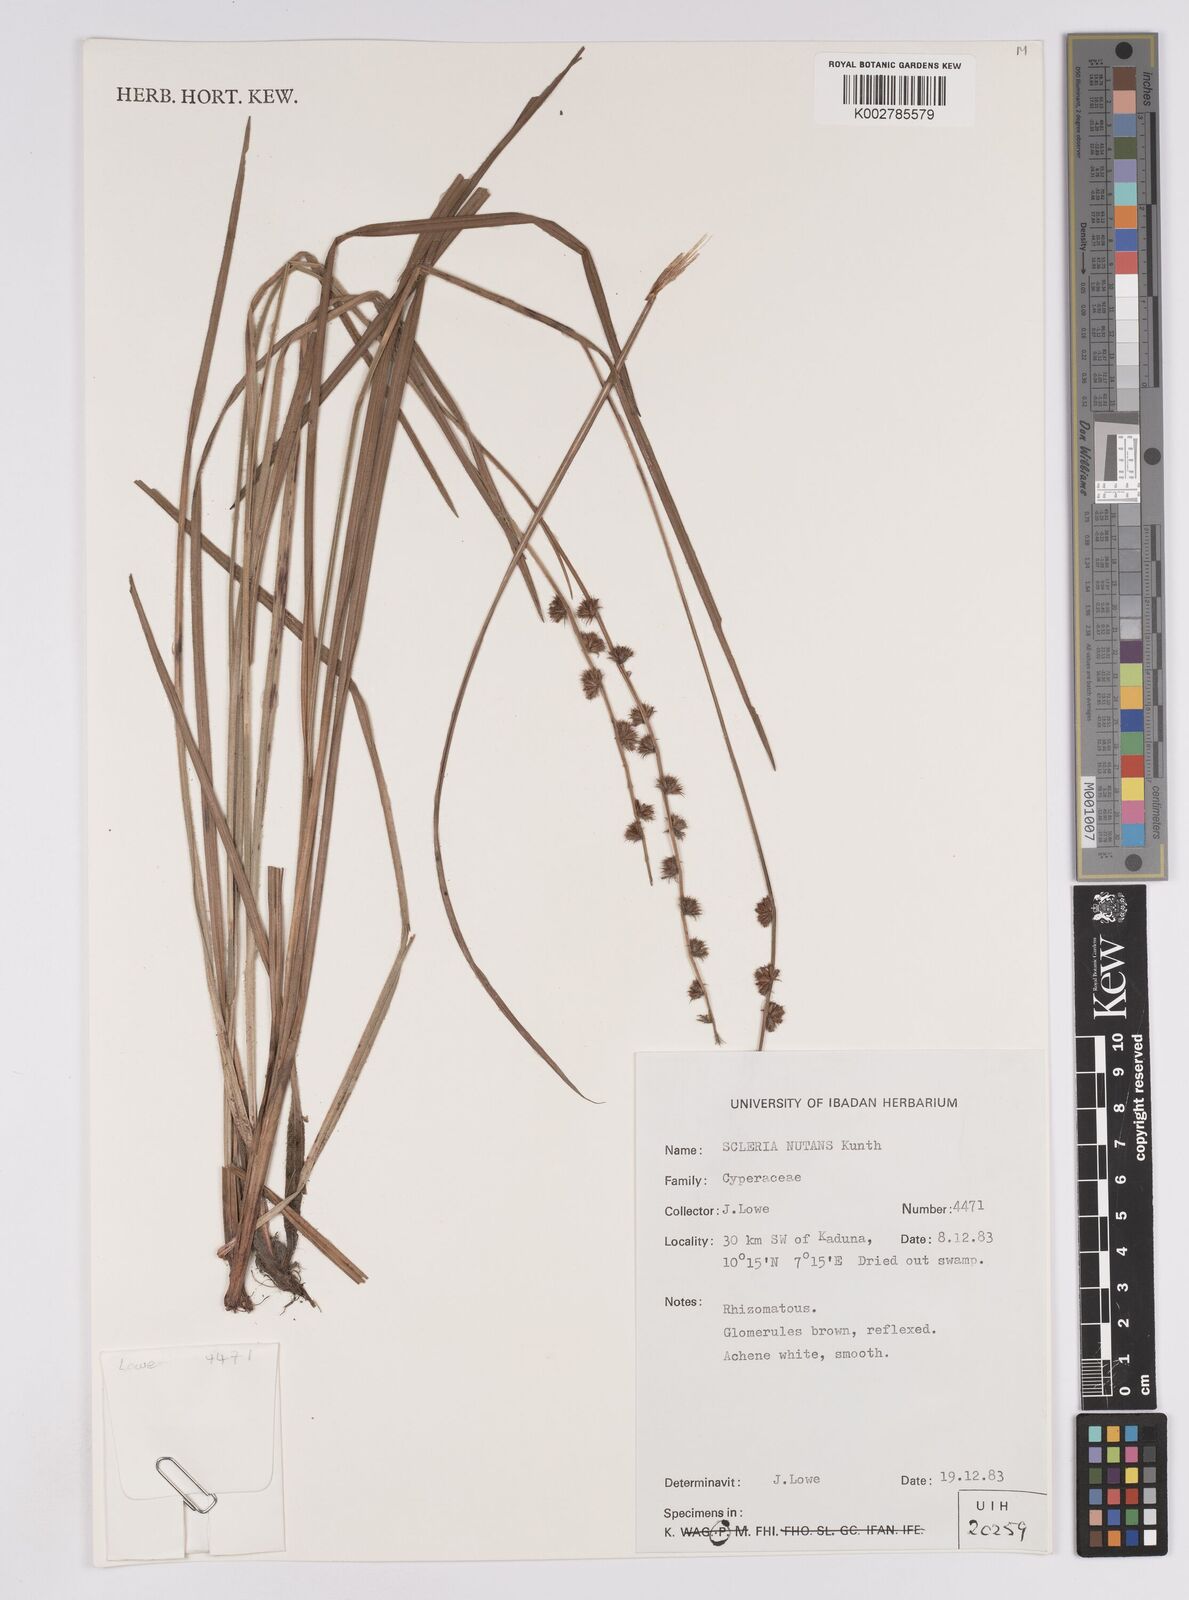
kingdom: Plantae
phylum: Tracheophyta
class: Liliopsida
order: Poales
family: Cyperaceae
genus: Scleria
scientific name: Scleria distans
